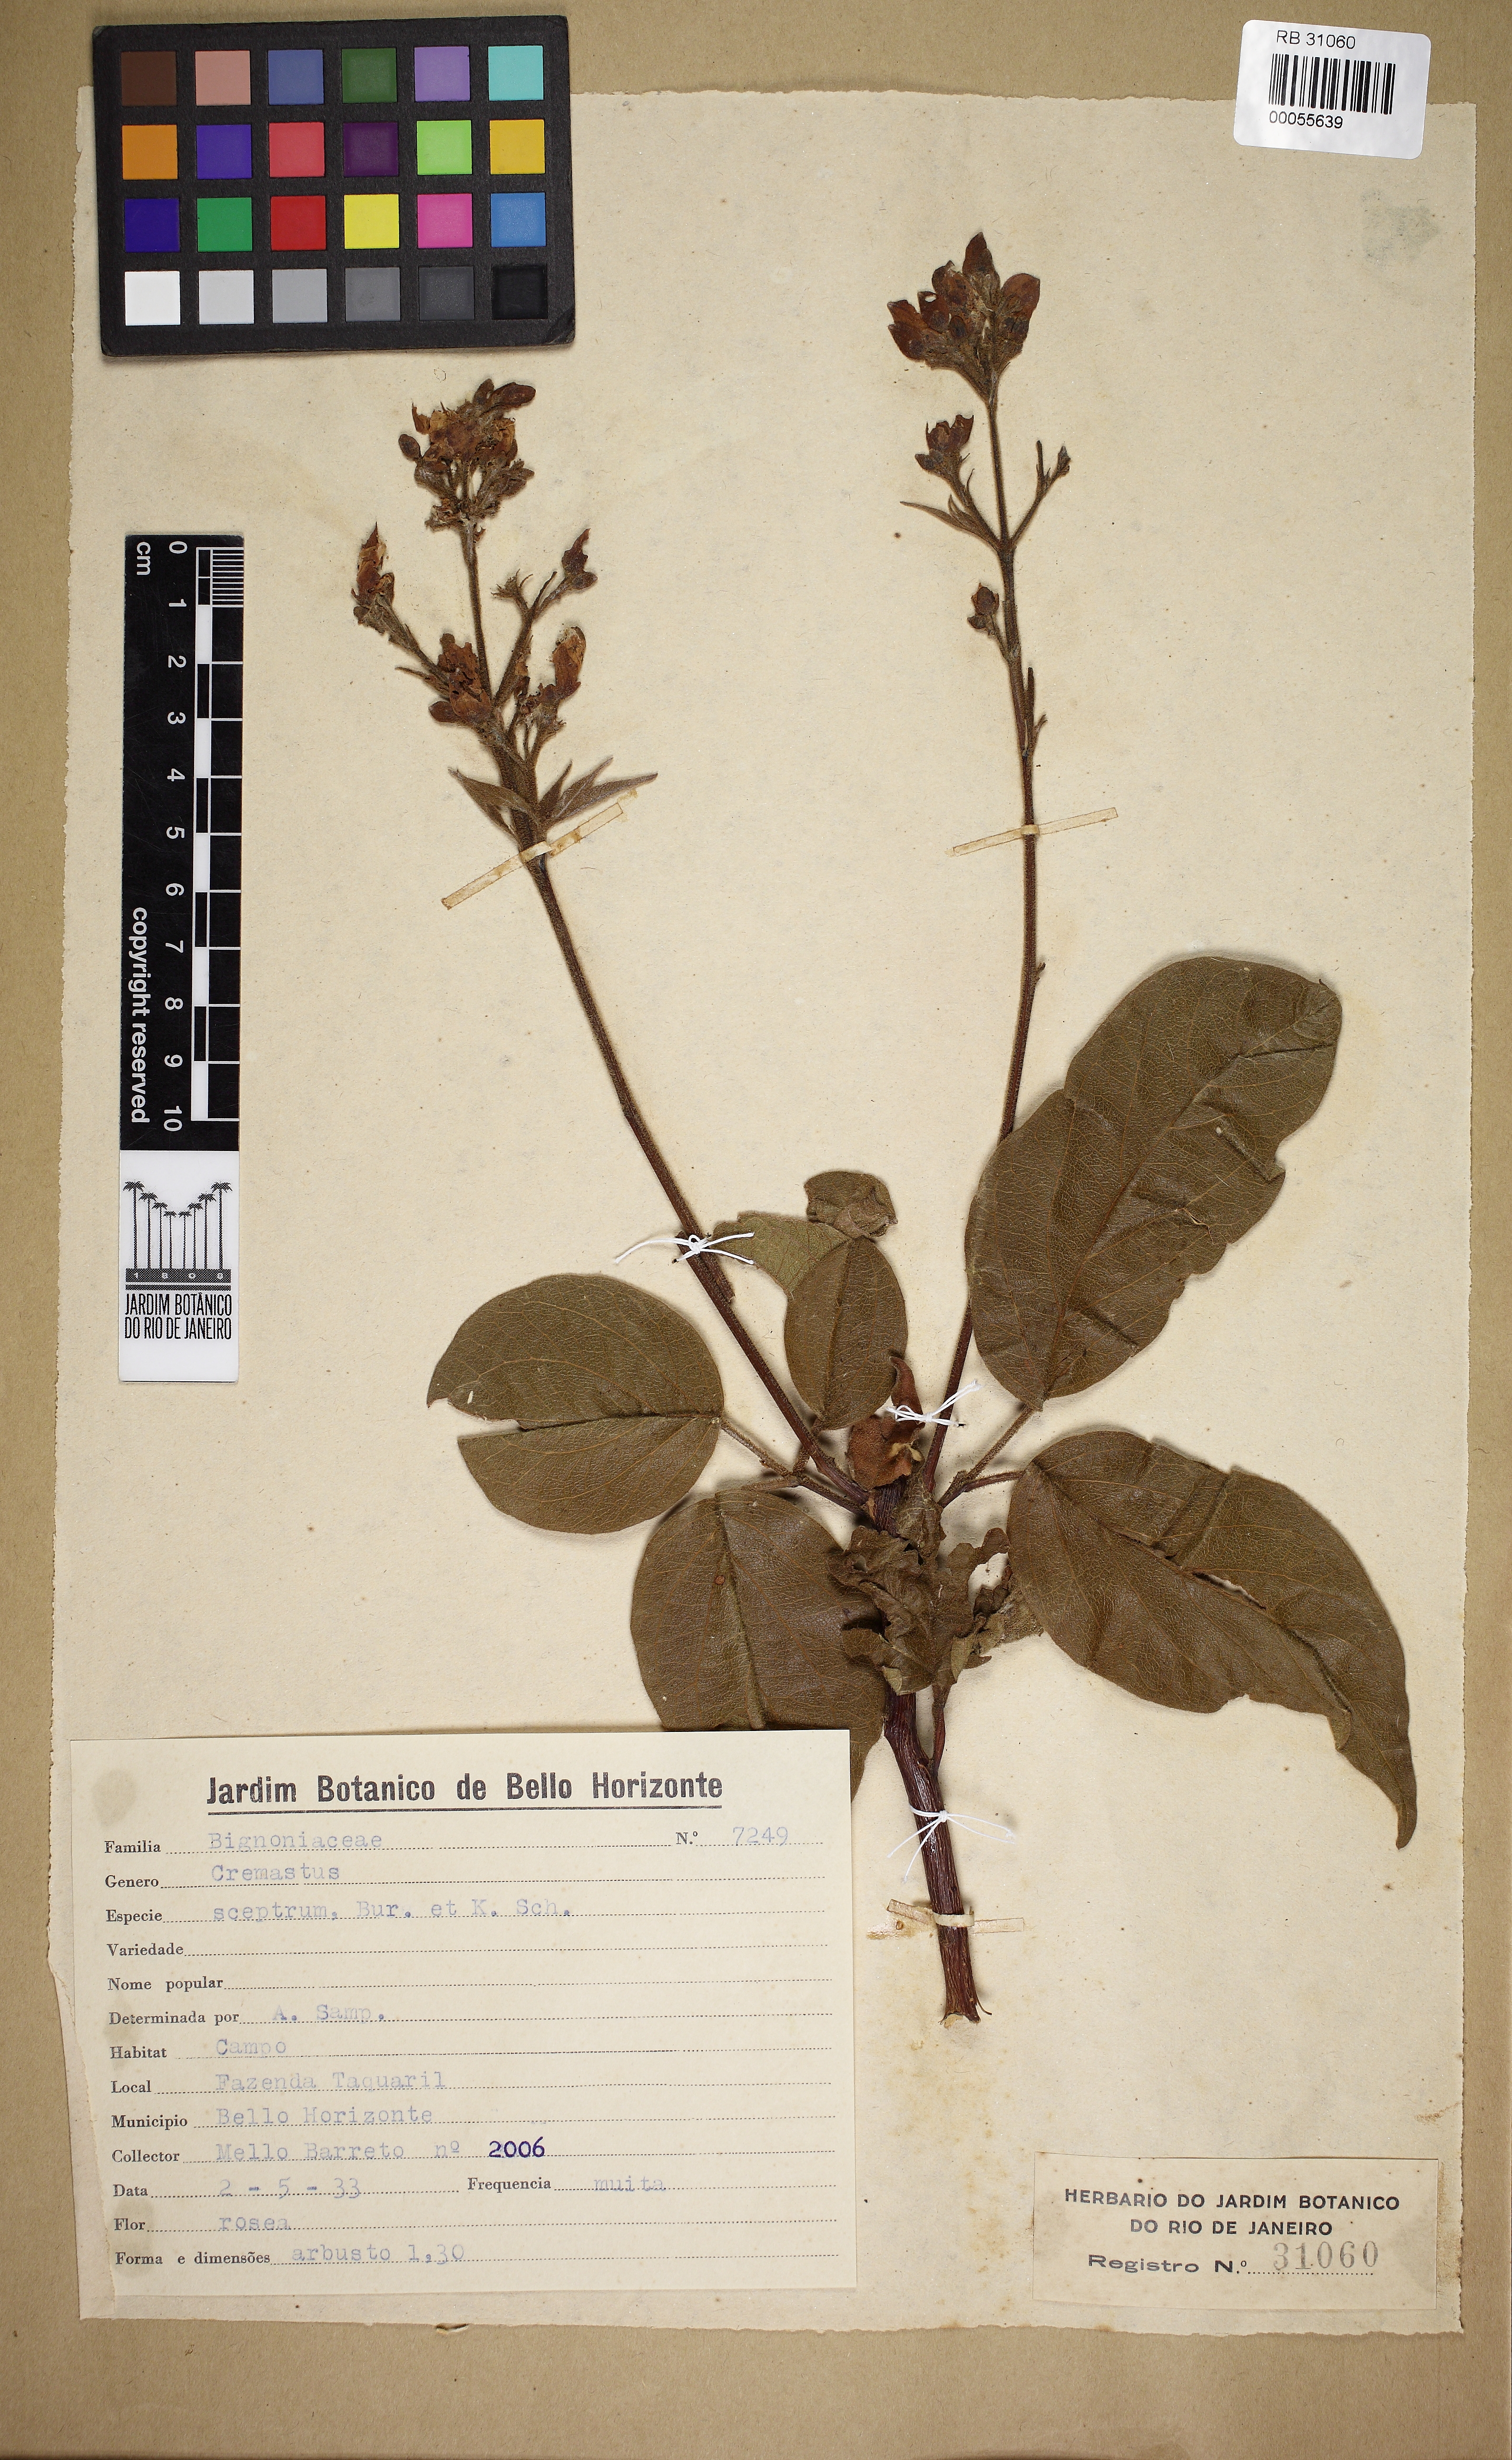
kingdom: Plantae
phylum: Tracheophyta
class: Magnoliopsida
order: Lamiales
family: Bignoniaceae
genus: Cuspidaria
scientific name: Cuspidaria pulchra
